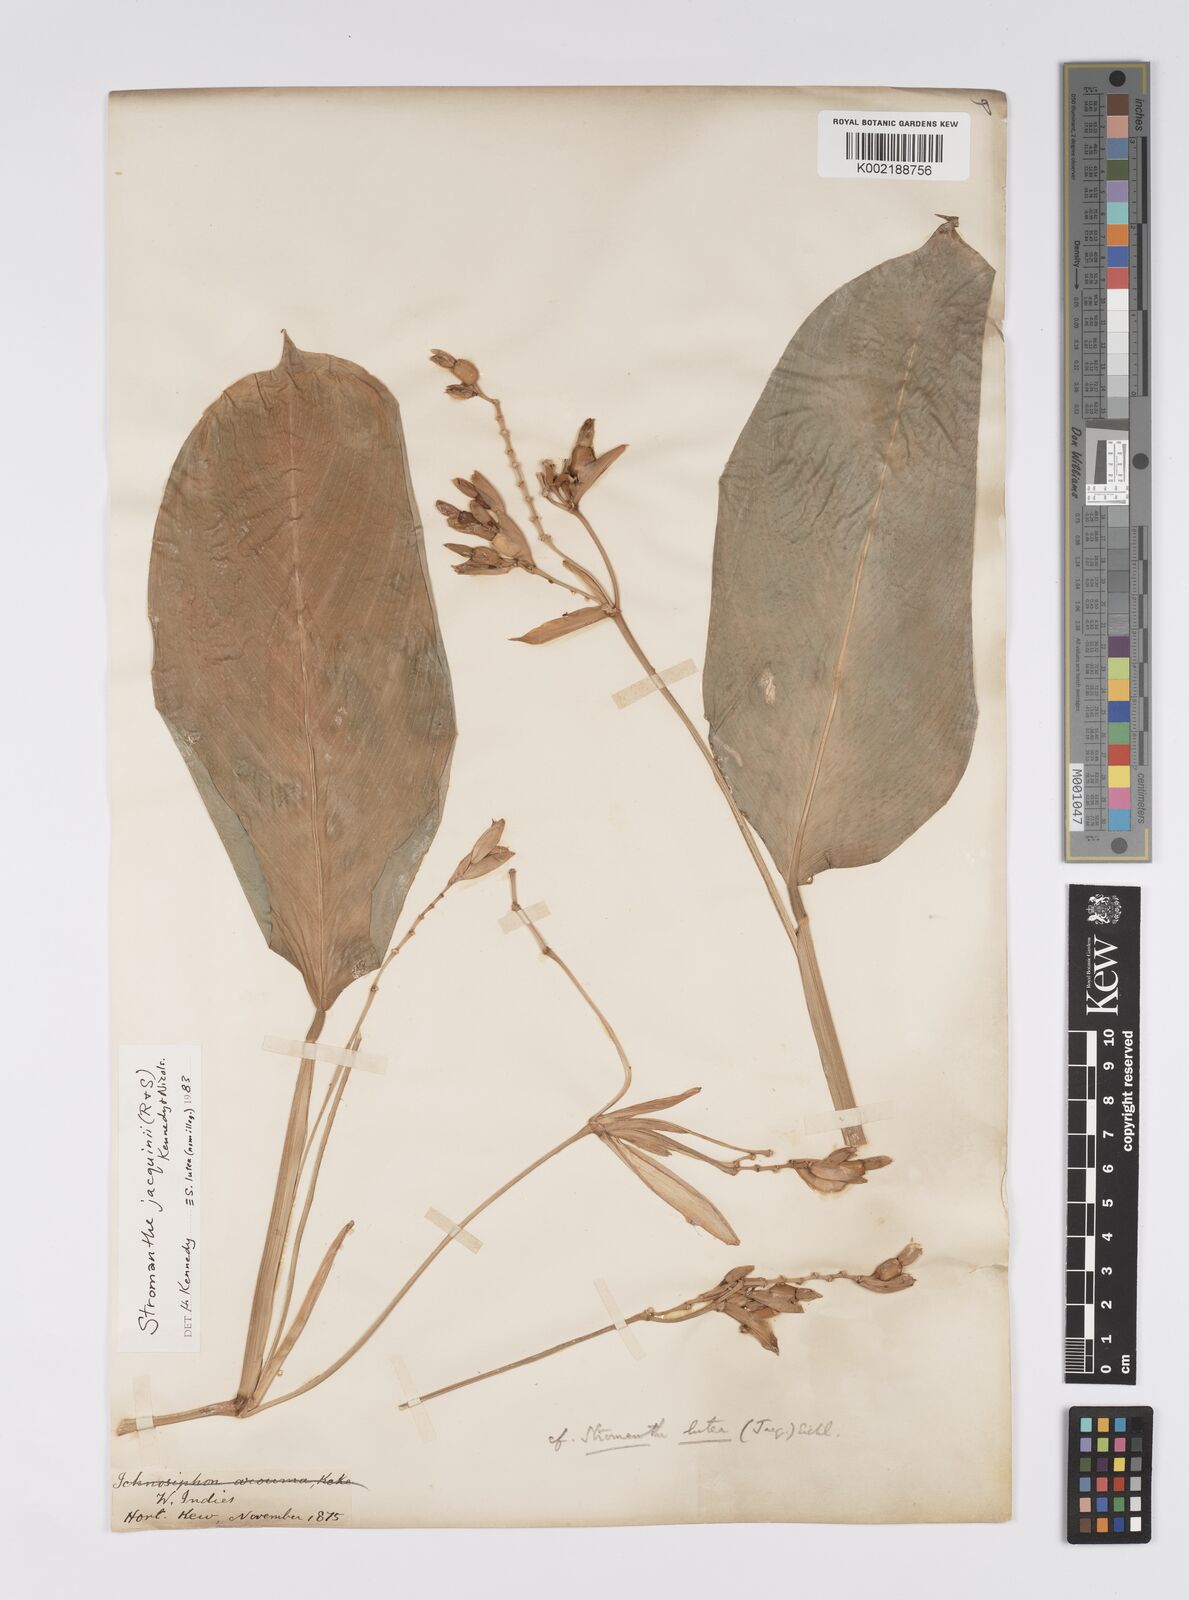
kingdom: Plantae
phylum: Tracheophyta
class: Liliopsida
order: Zingiberales
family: Marantaceae
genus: Stromanthe
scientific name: Stromanthe jacquinii
